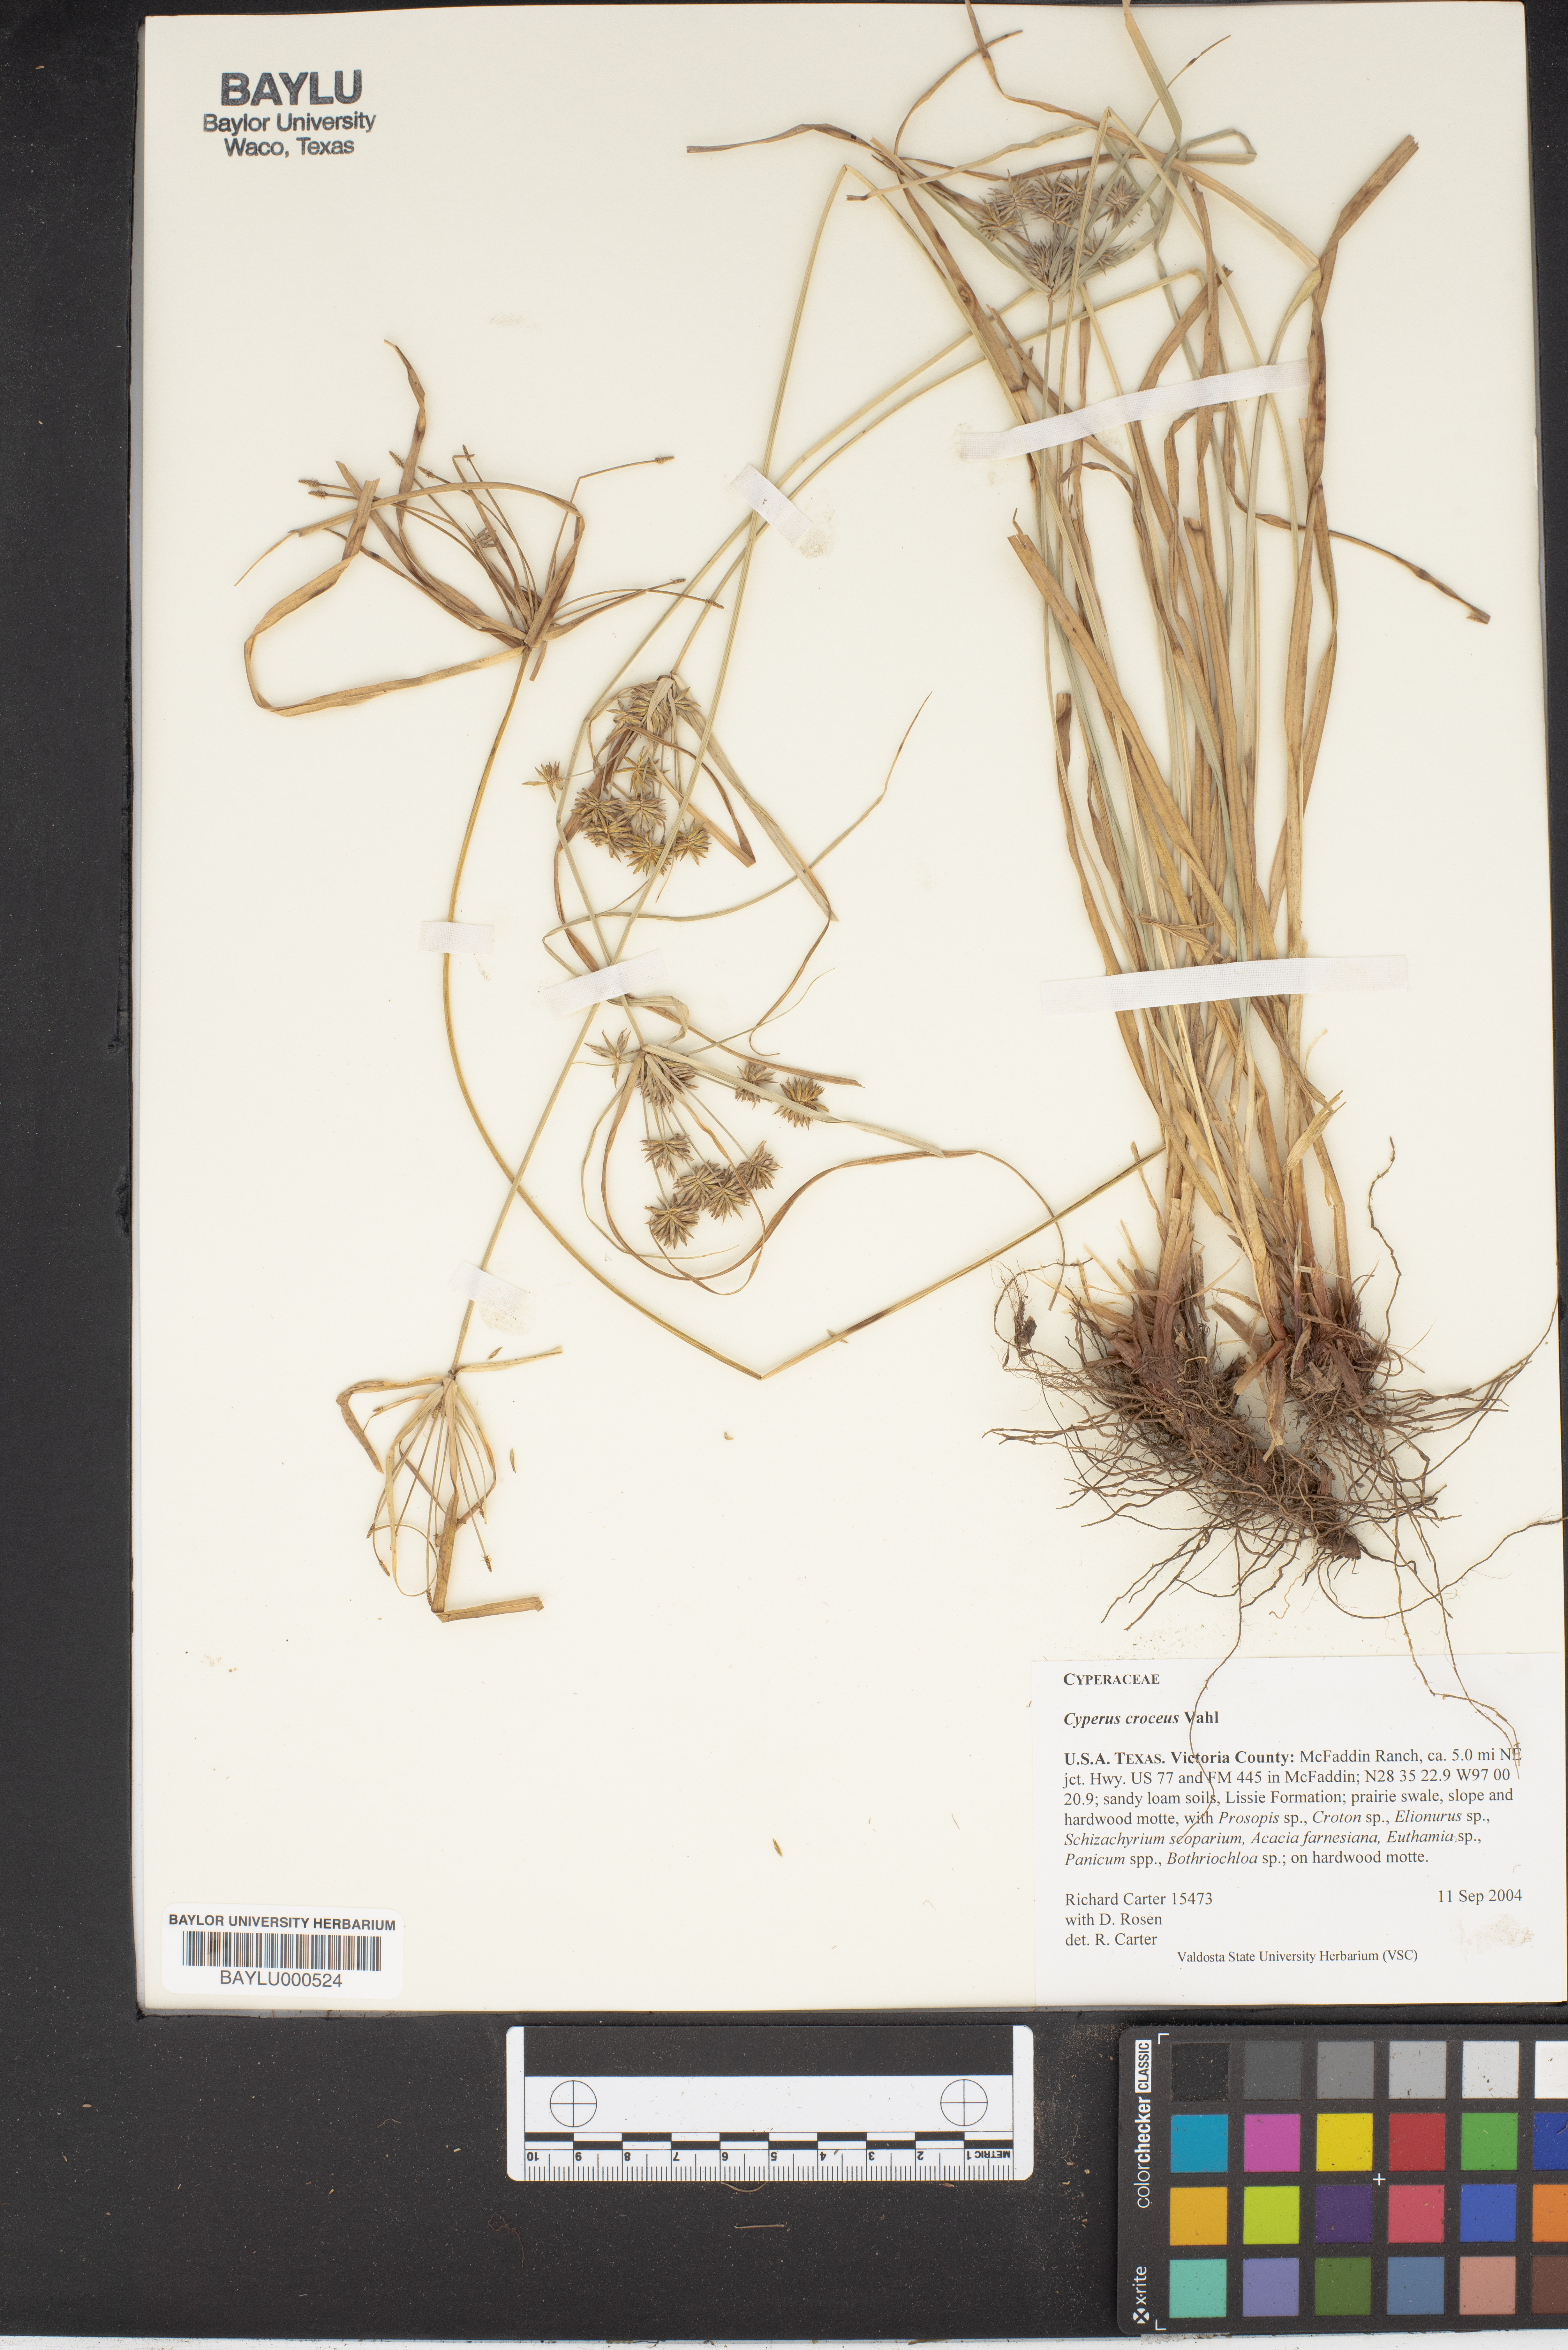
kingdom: Plantae
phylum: Tracheophyta
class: Liliopsida
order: Poales
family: Cyperaceae
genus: Cyperus
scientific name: Cyperus croceus
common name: Baldwin's flatsedge
